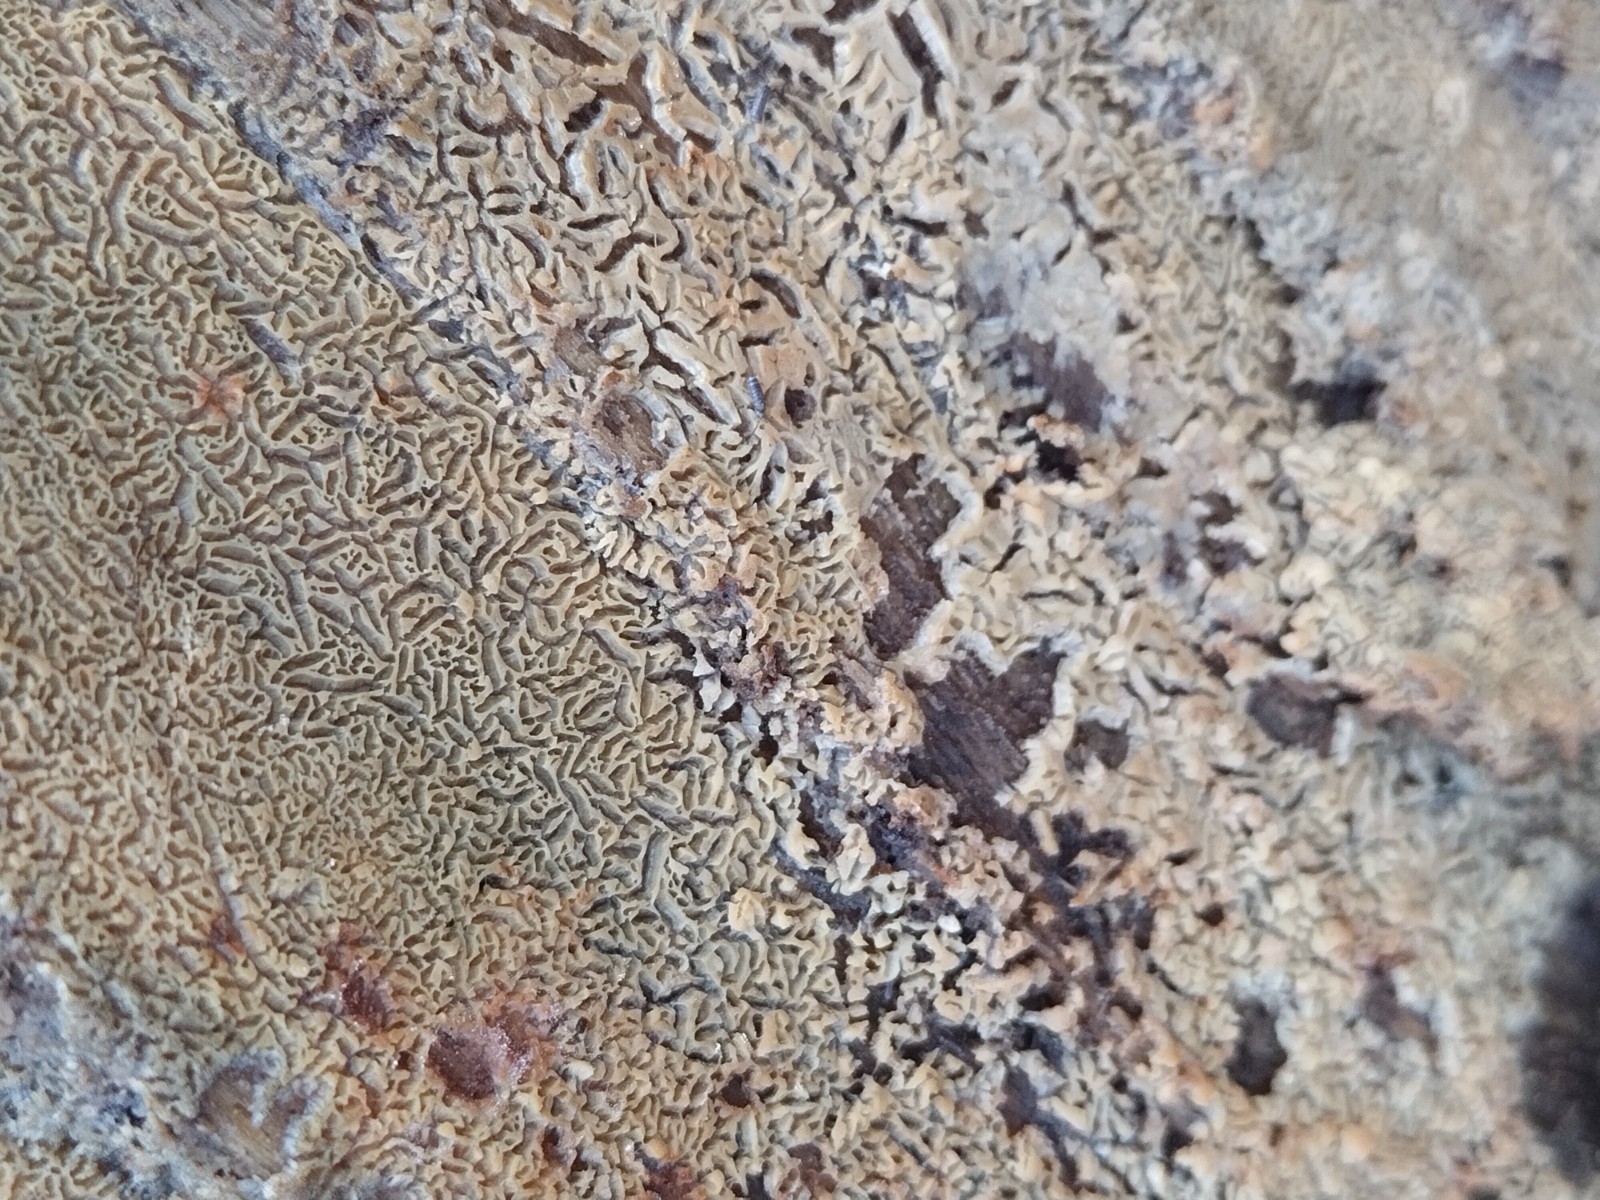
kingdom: Fungi
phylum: Basidiomycota
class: Agaricomycetes
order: Corticiales
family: Corticiaceae
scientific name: Corticiaceae
